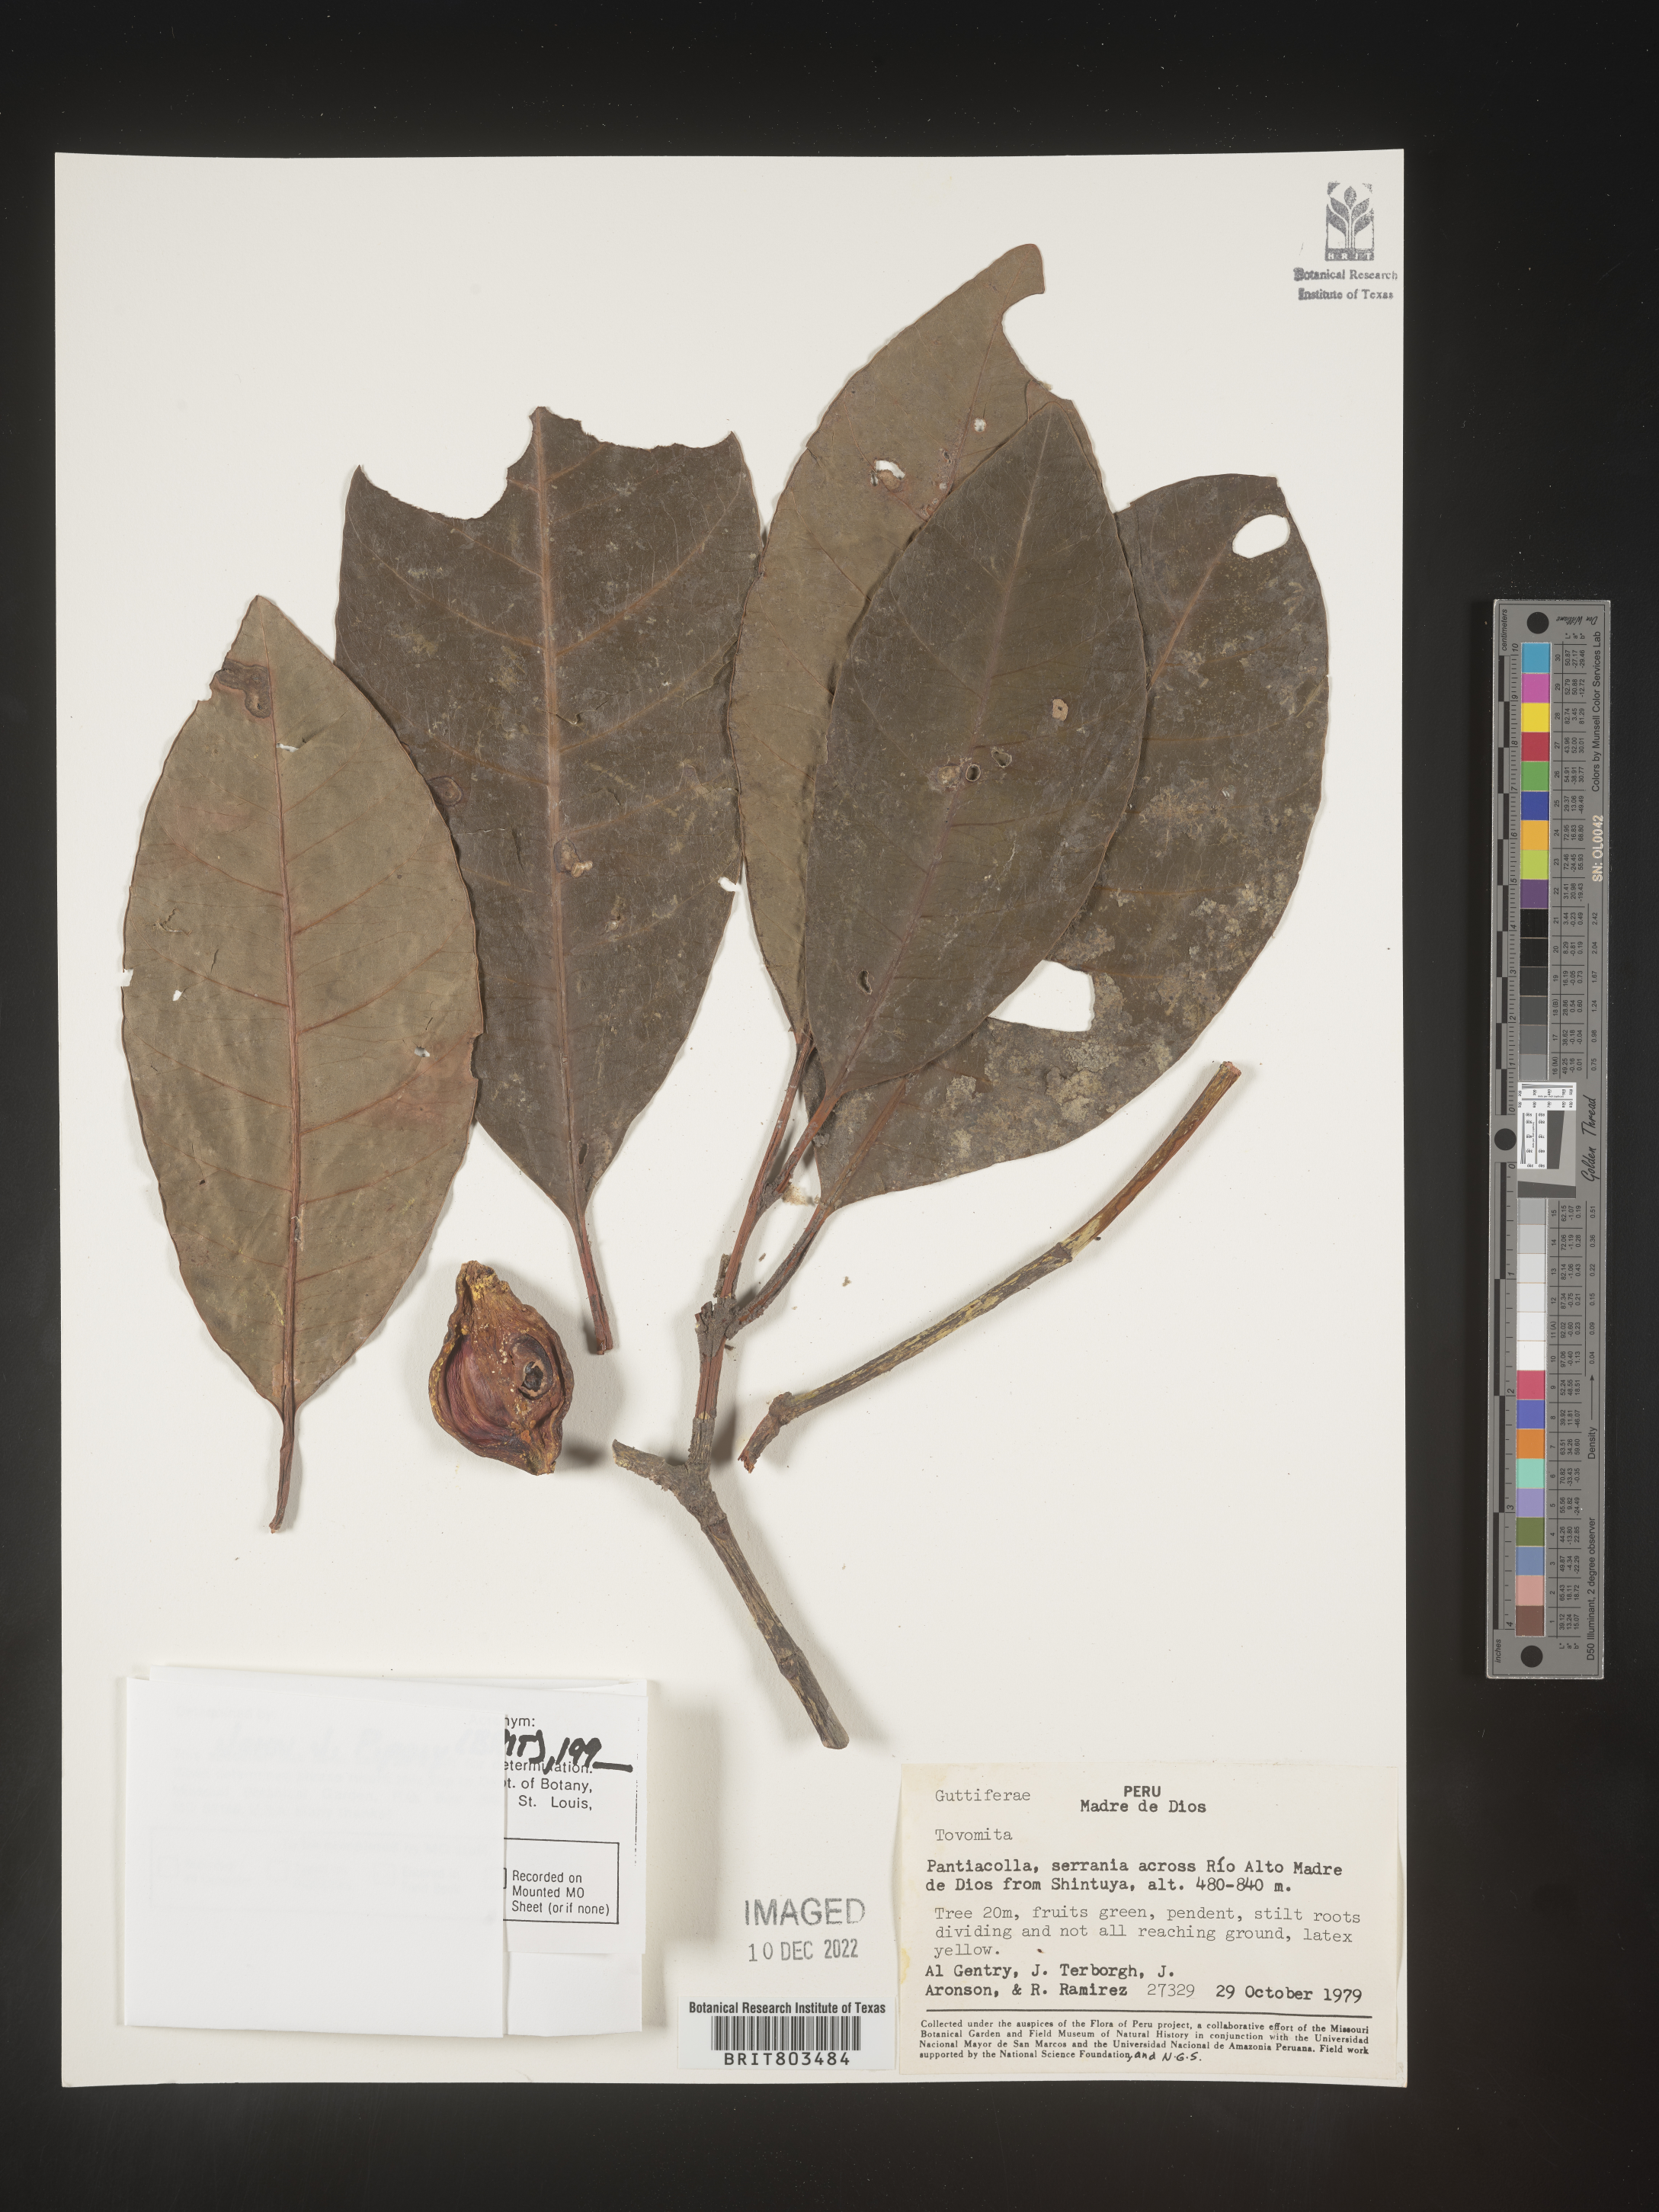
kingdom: Plantae
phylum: Tracheophyta
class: Magnoliopsida
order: Malpighiales
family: Clusiaceae
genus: Tovomita
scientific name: Tovomita
